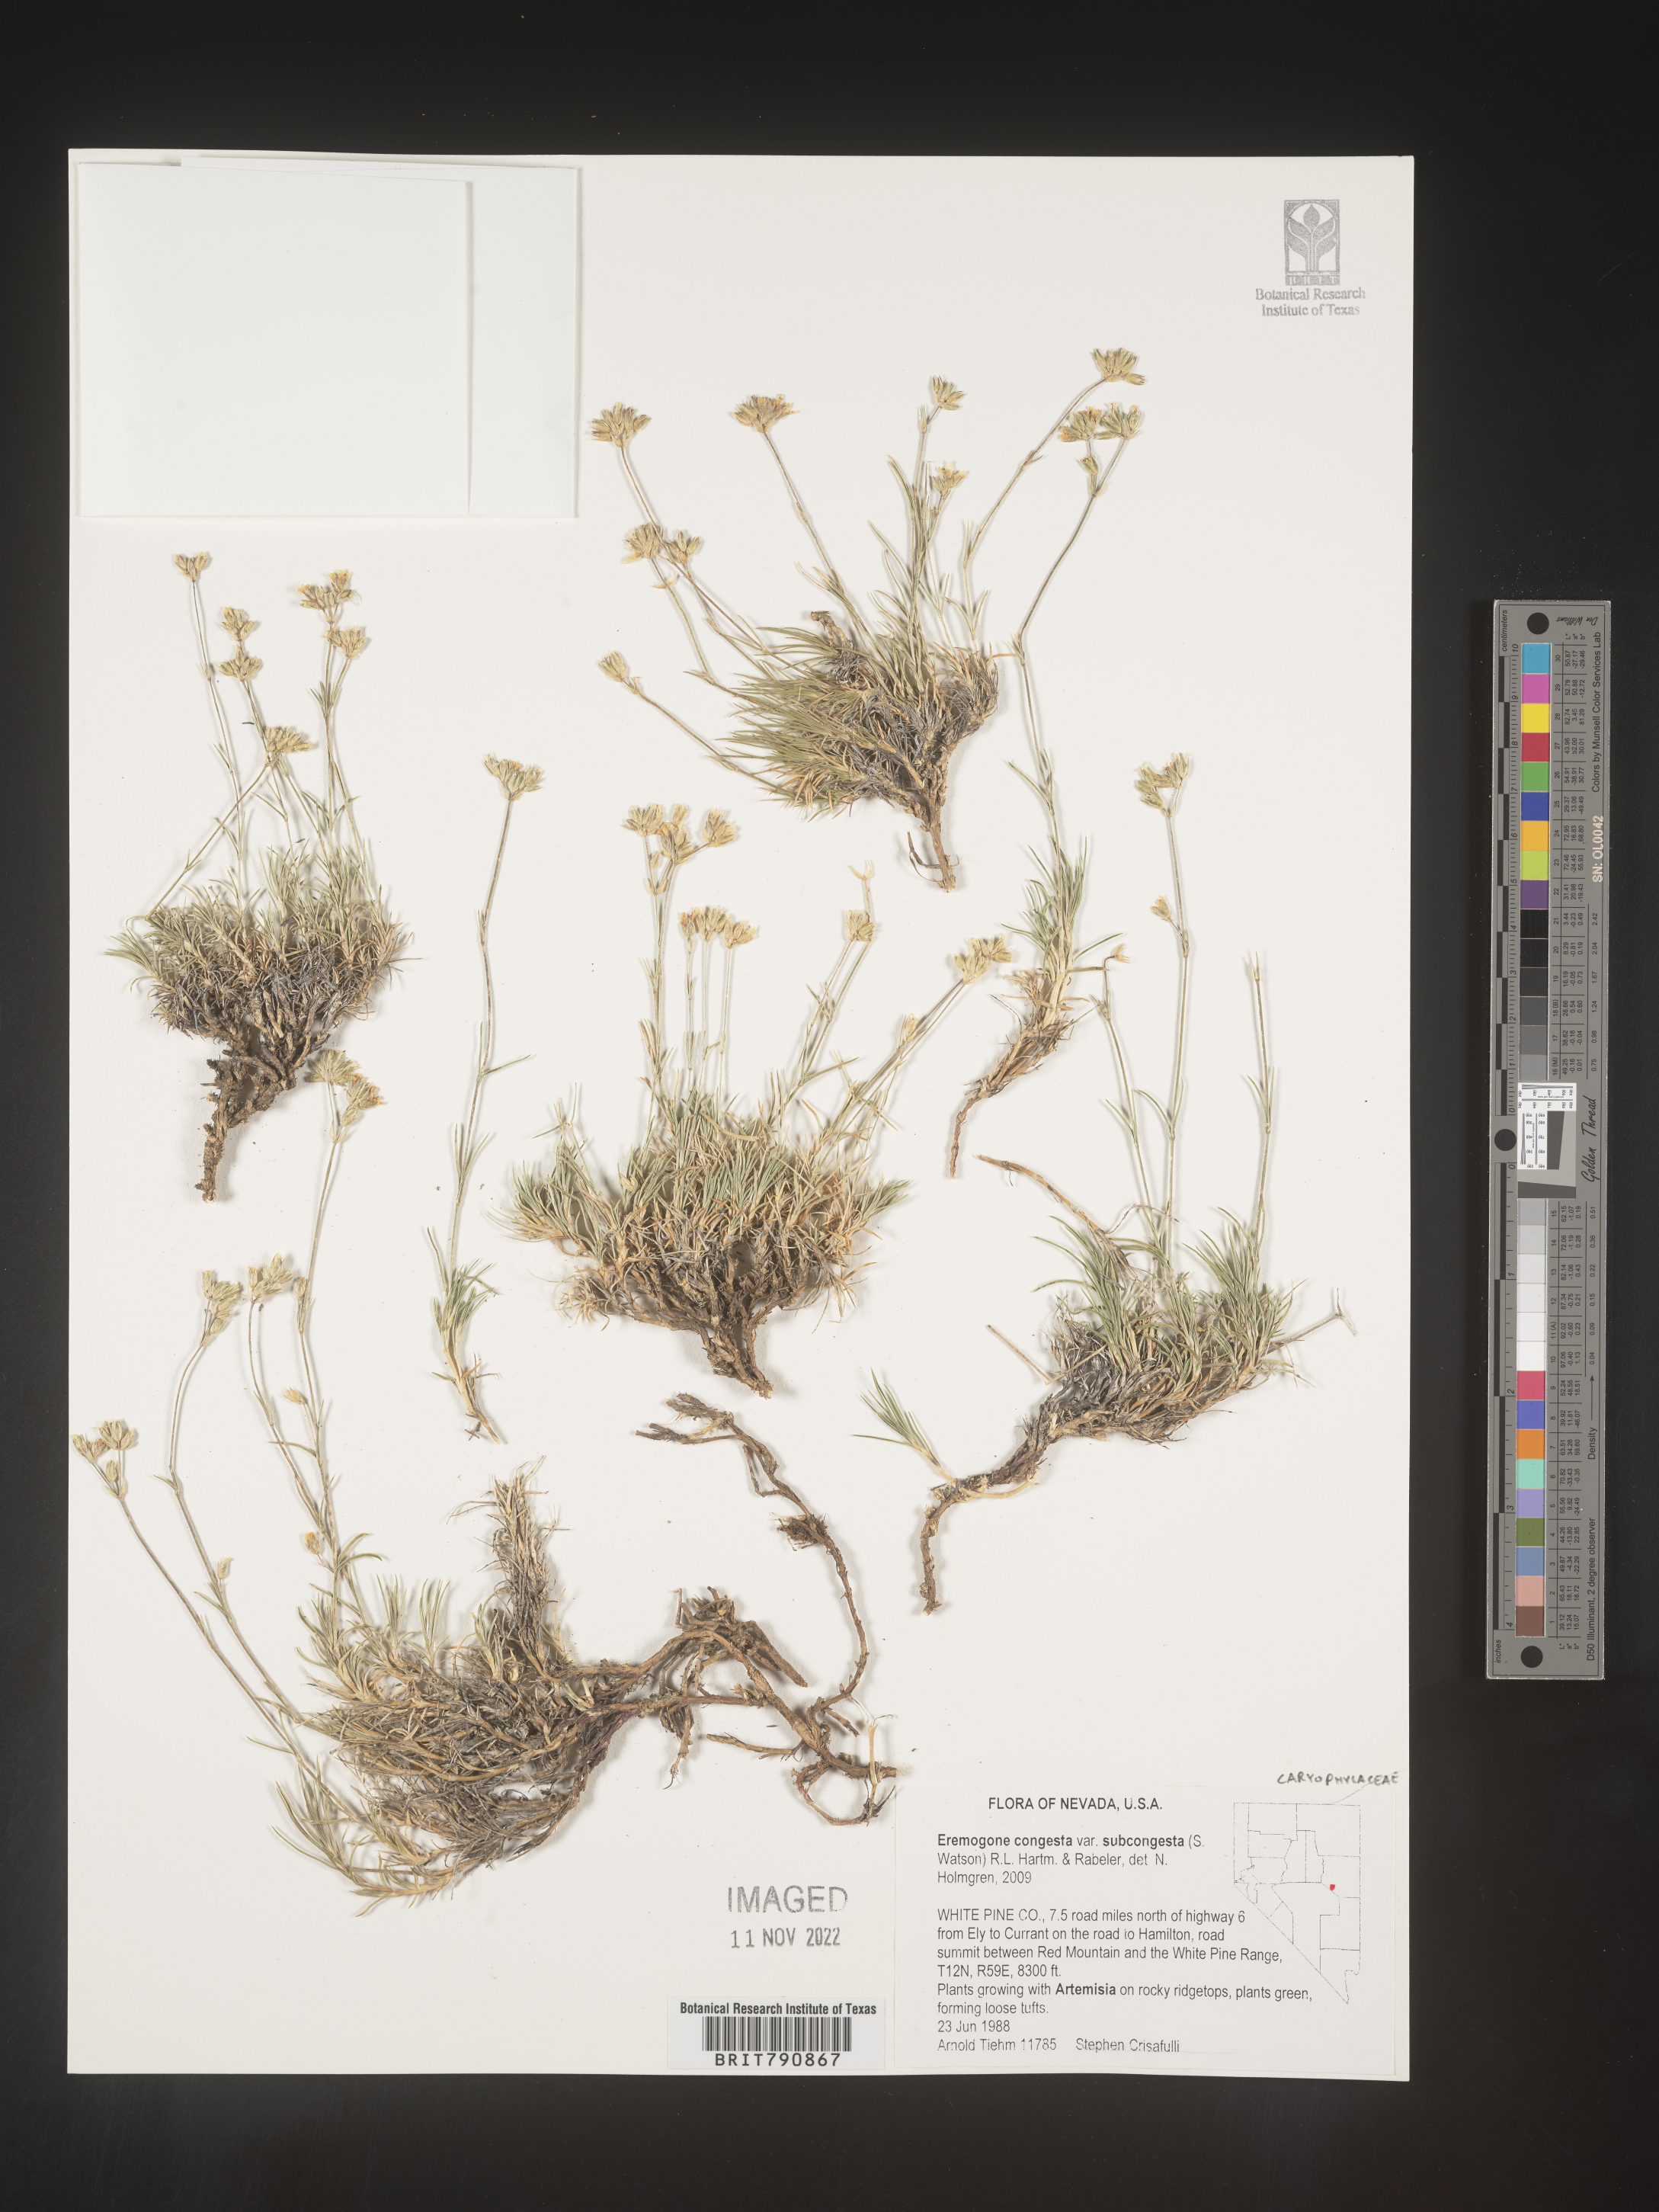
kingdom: Plantae
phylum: Tracheophyta
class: Magnoliopsida
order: Caryophyllales
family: Caryophyllaceae
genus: Eremogone
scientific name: Eremogone
